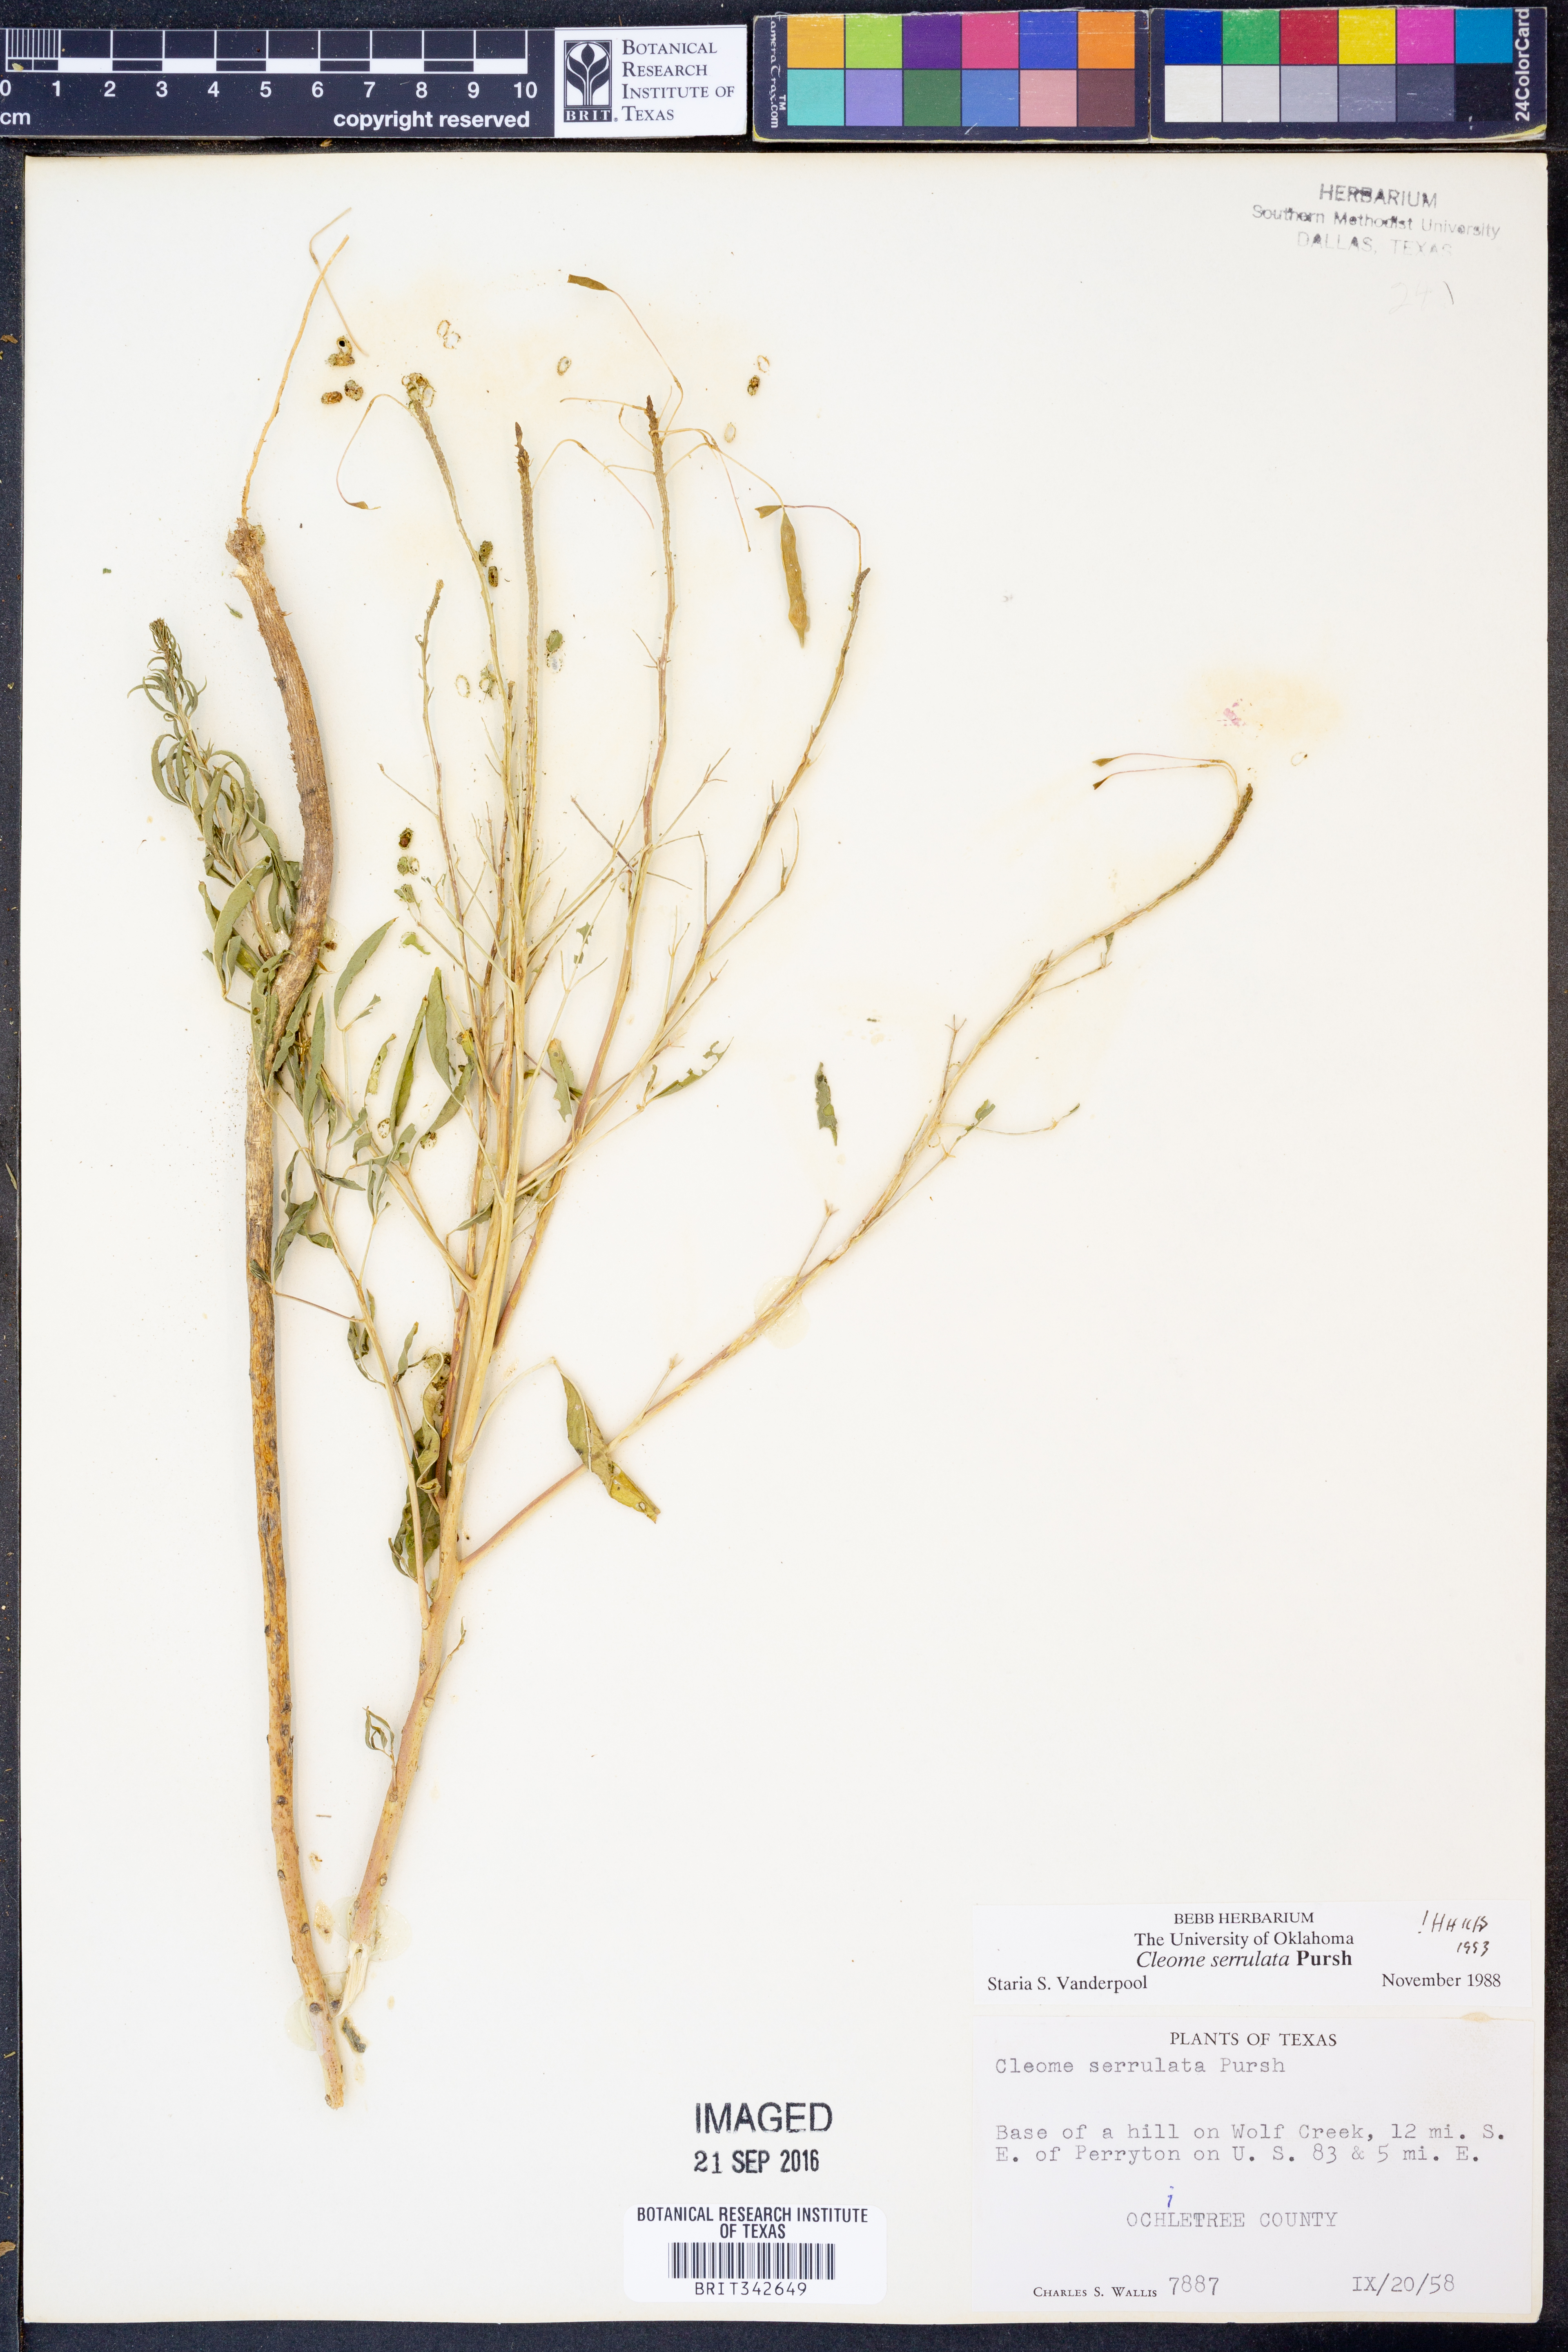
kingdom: Plantae
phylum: Tracheophyta
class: Magnoliopsida
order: Brassicales
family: Cleomaceae
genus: Cleomella
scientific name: Cleomella serrulata
